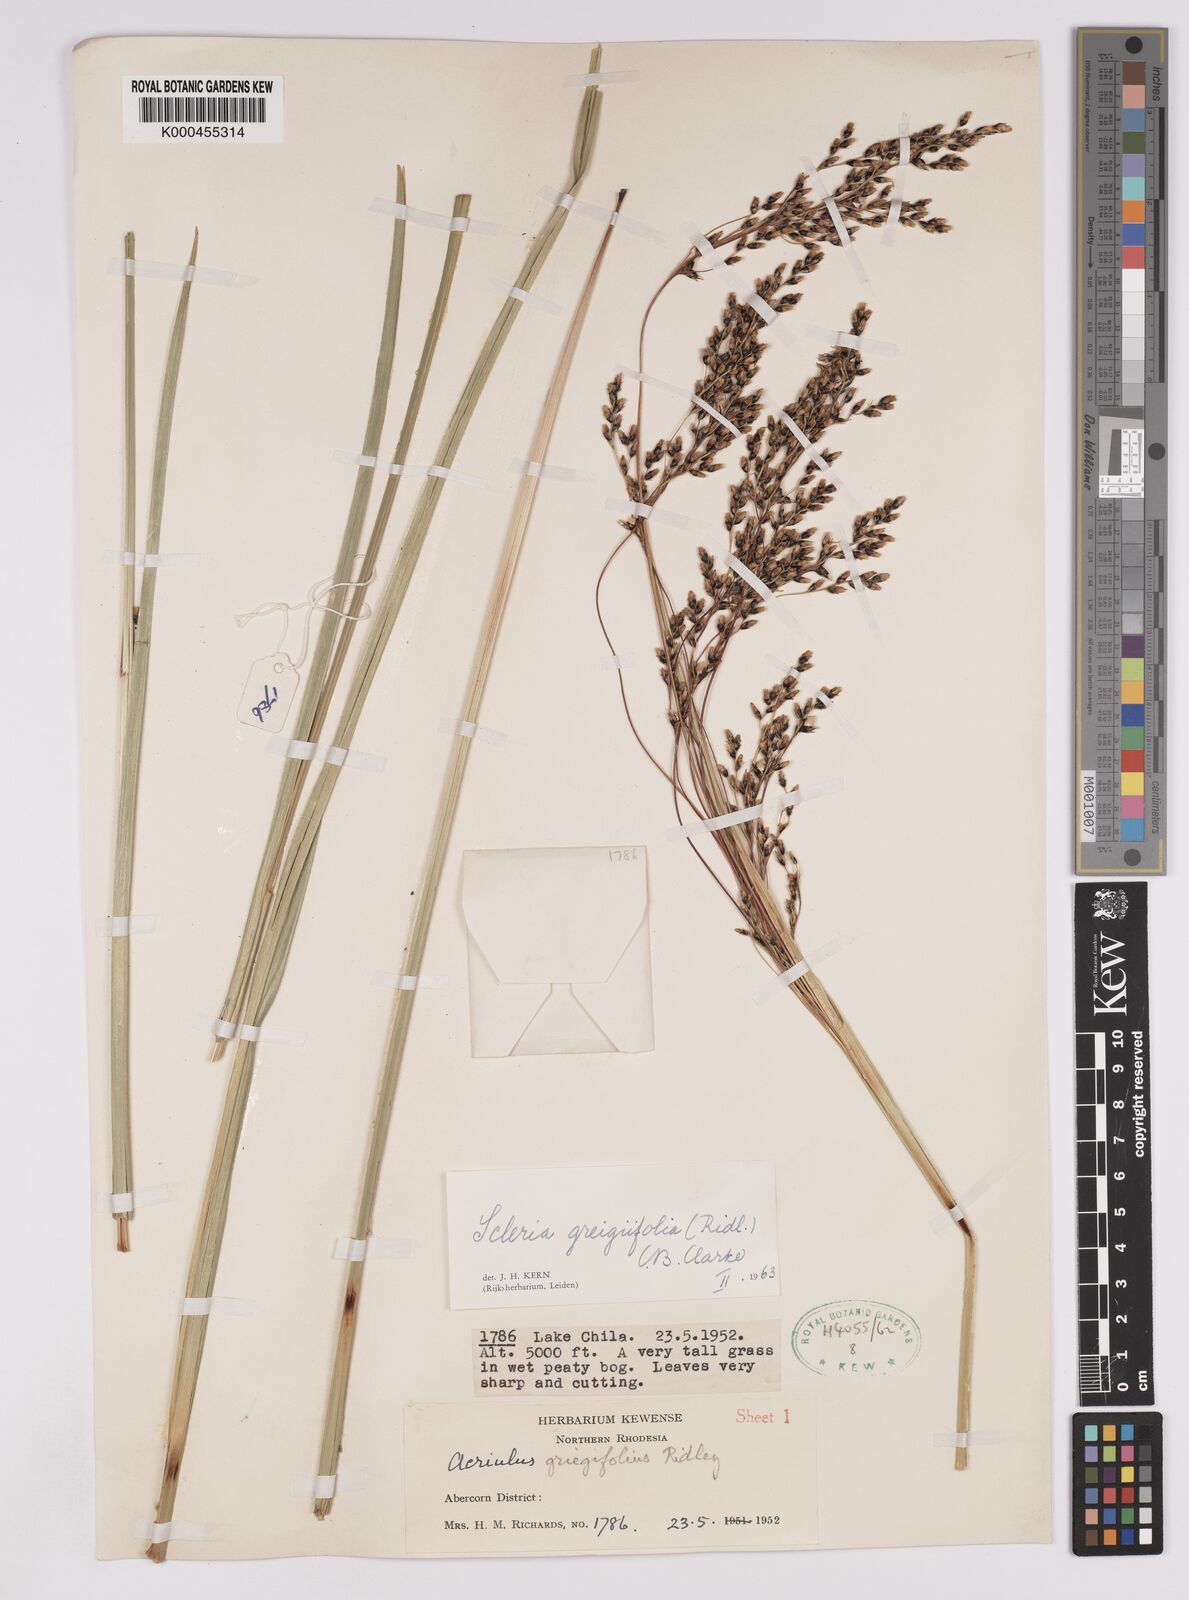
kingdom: Plantae
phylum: Tracheophyta
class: Liliopsida
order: Poales
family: Cyperaceae
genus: Scleria
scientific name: Scleria greigiifolia
